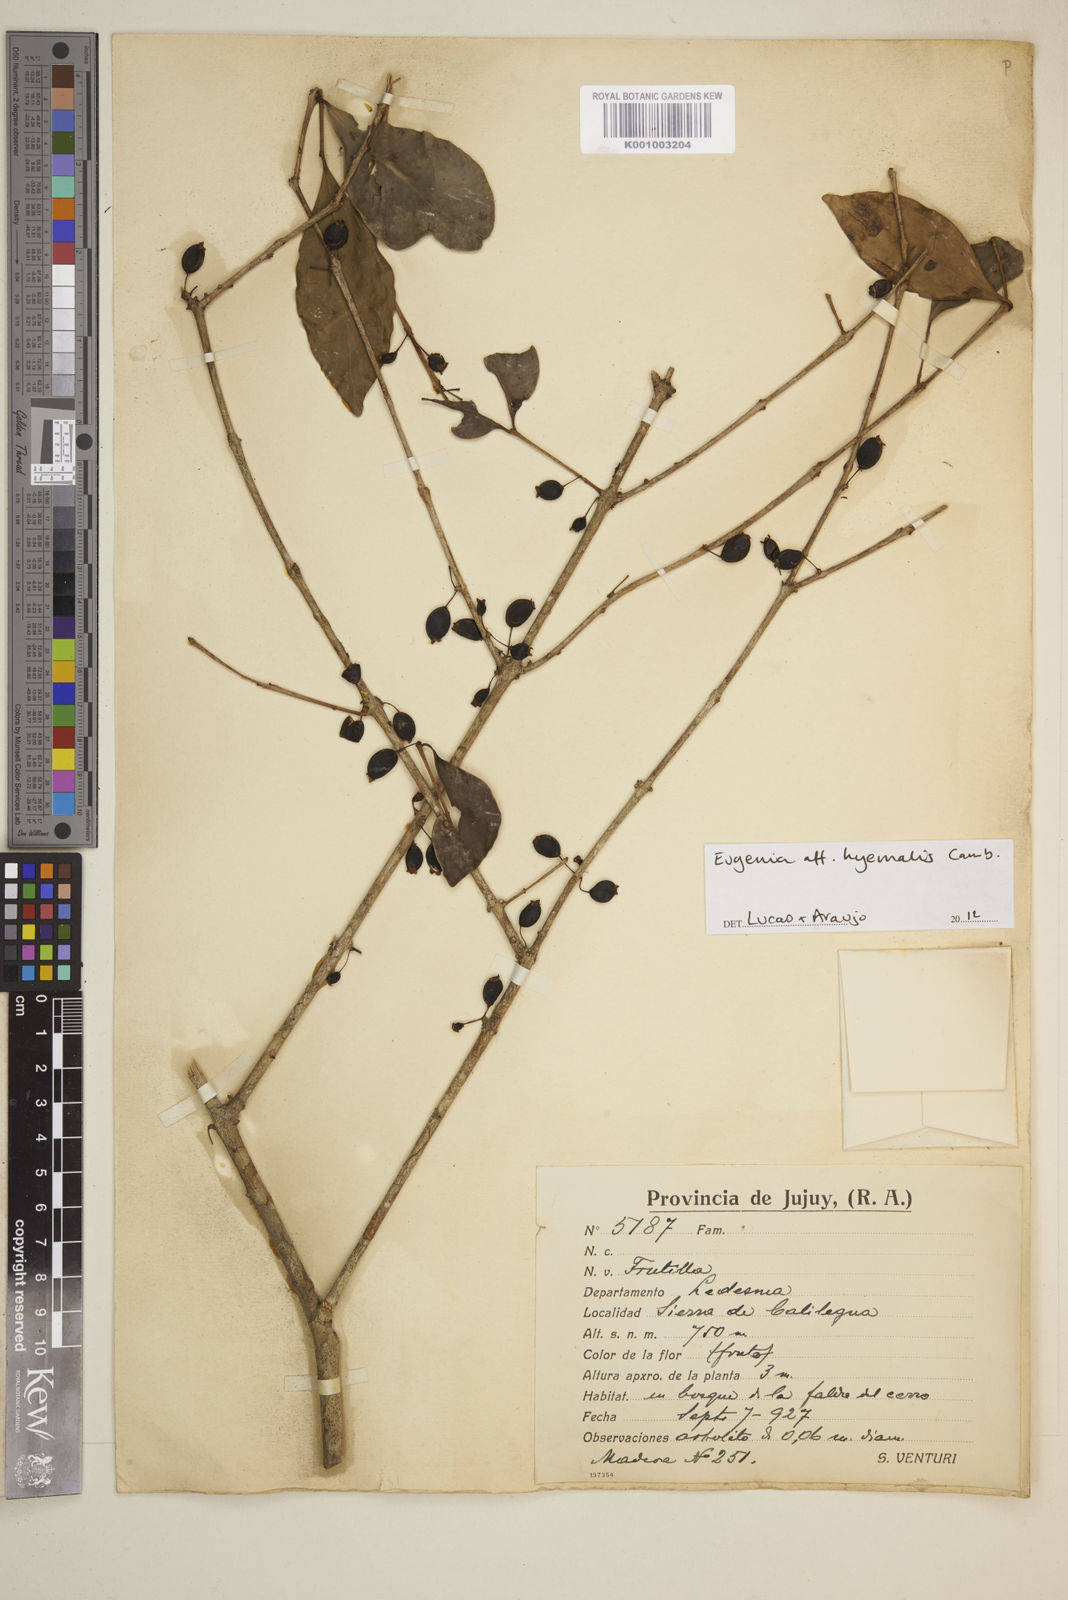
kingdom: Plantae
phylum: Tracheophyta
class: Magnoliopsida
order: Myrtales
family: Myrtaceae
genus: Eugenia
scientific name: Eugenia
